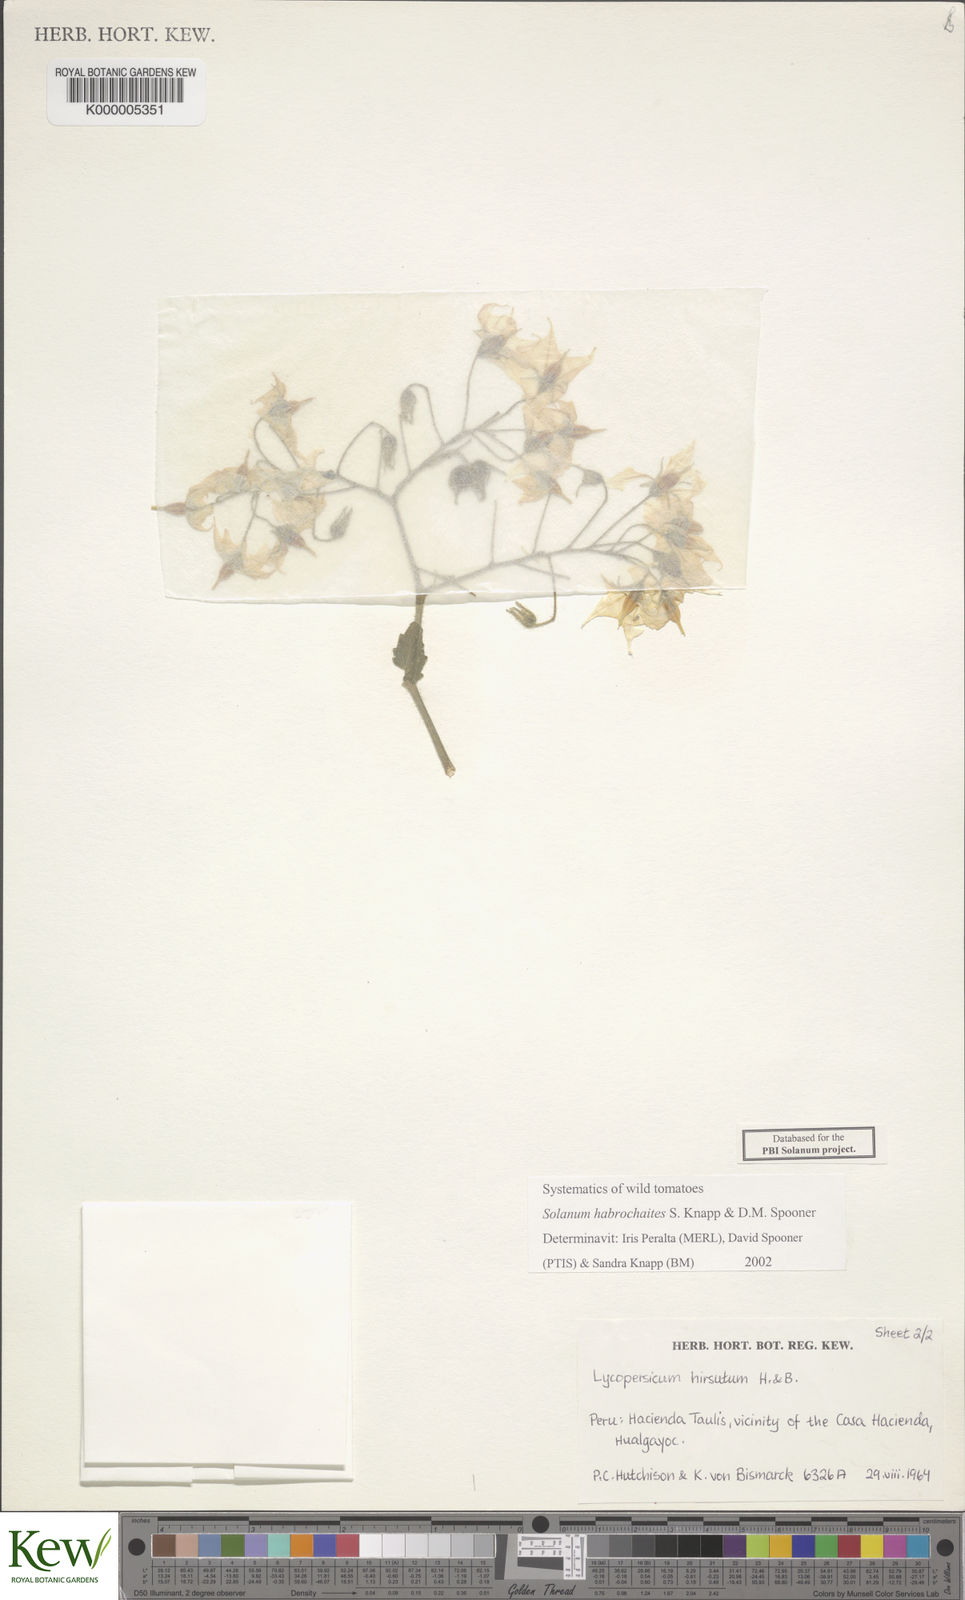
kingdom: Plantae
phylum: Tracheophyta
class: Magnoliopsida
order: Solanales
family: Solanaceae
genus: Solanum
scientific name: Solanum habrochaites
